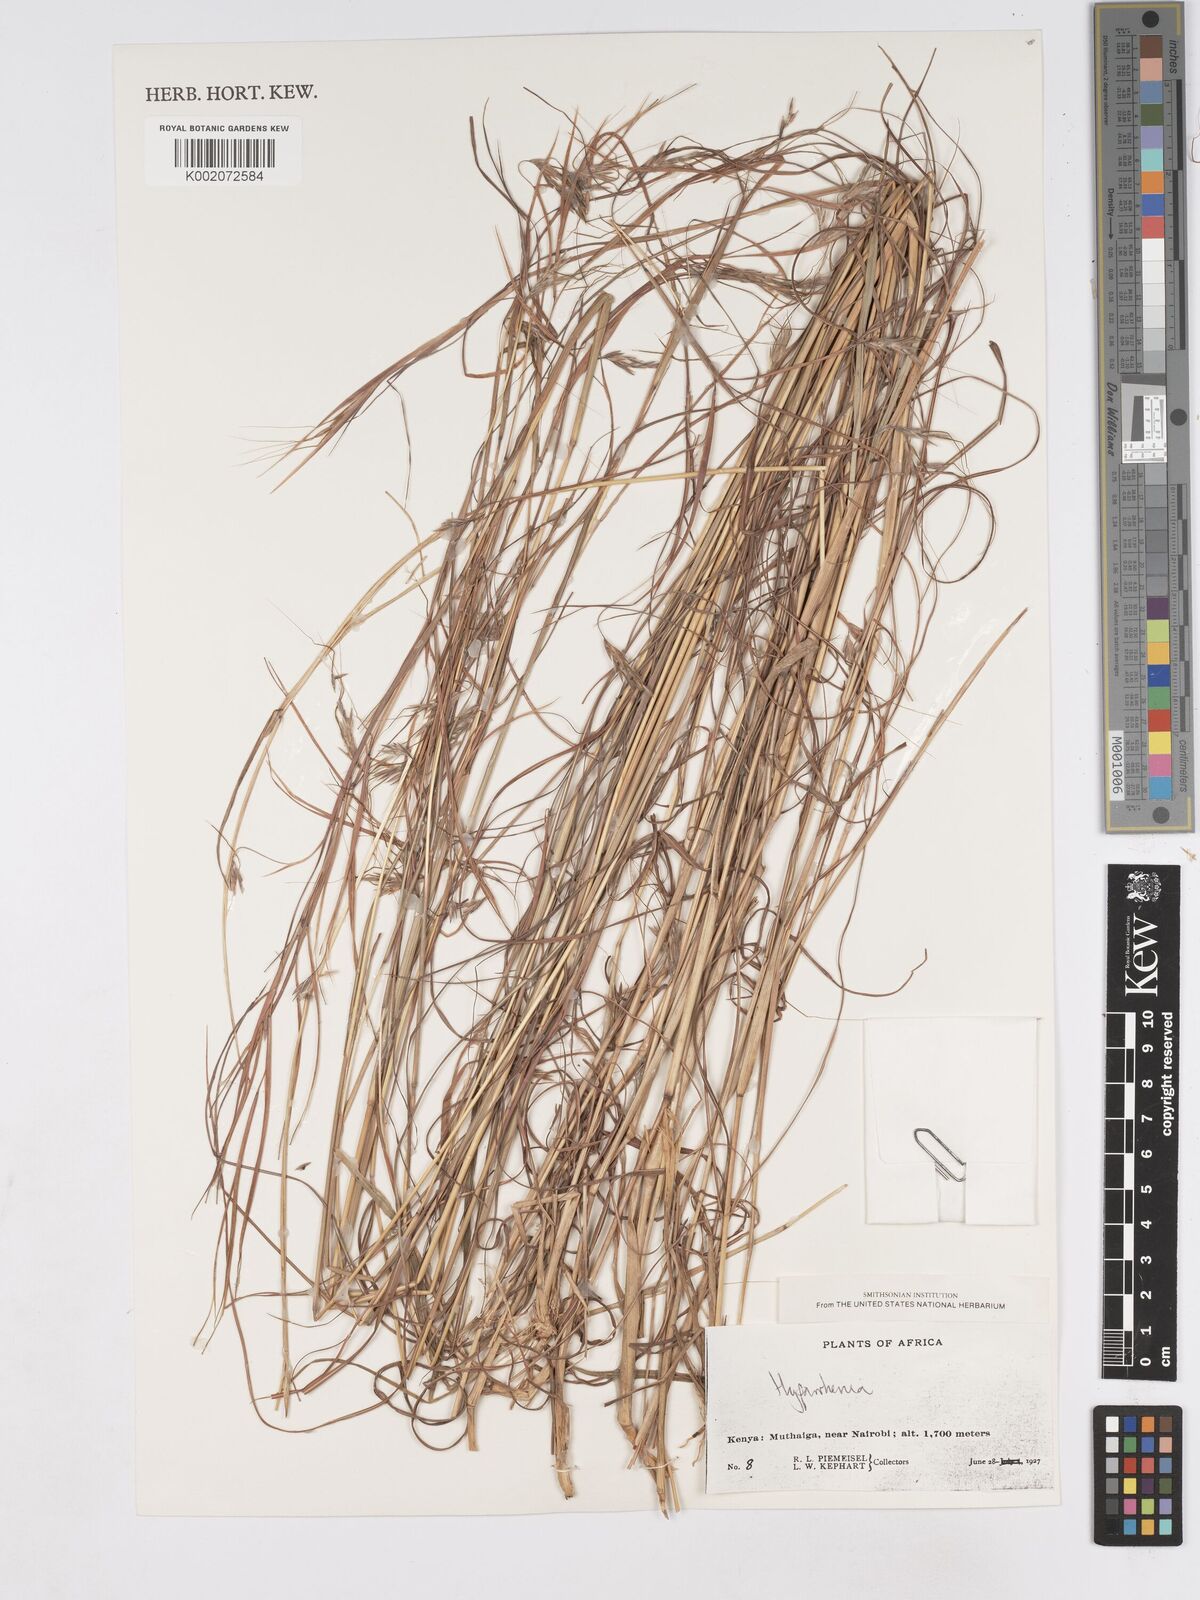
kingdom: Plantae
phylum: Tracheophyta
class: Liliopsida
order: Poales
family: Poaceae
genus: Hyparrhenia
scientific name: Hyparrhenia
